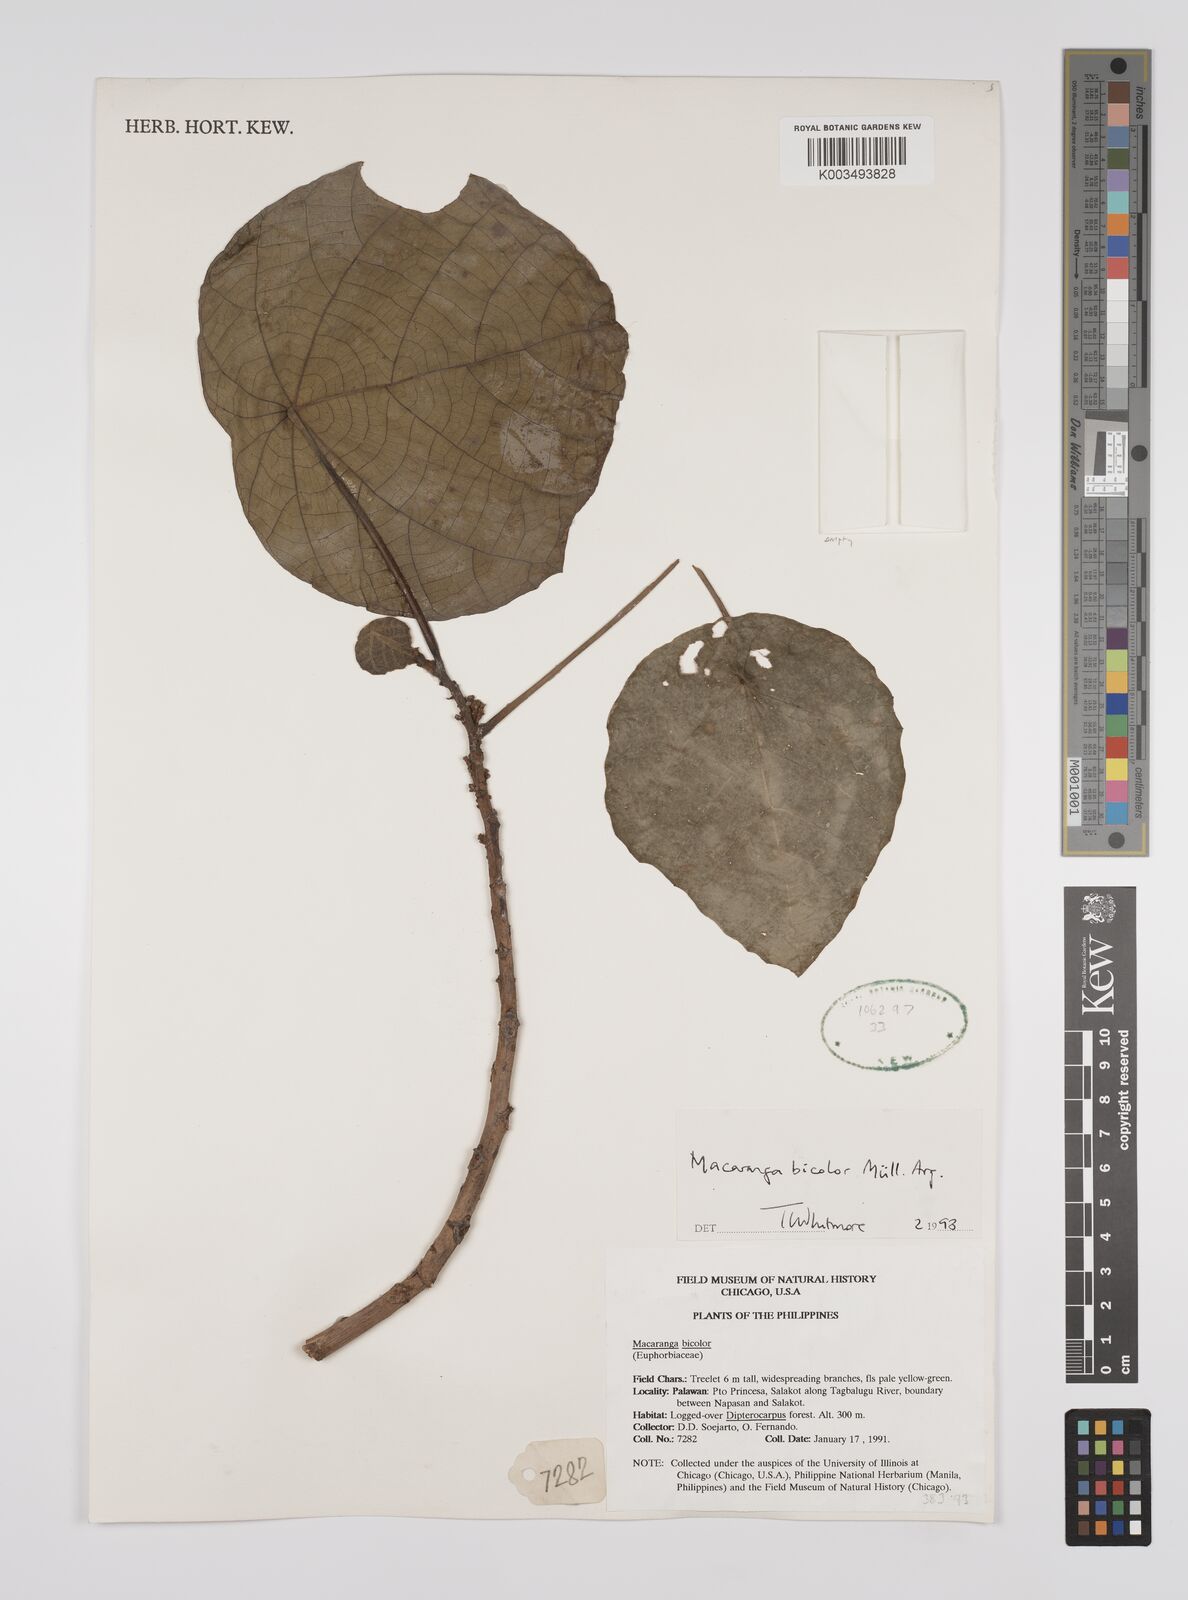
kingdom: Plantae
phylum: Tracheophyta
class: Magnoliopsida
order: Malpighiales
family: Euphorbiaceae
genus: Macaranga
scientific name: Macaranga bicolor
